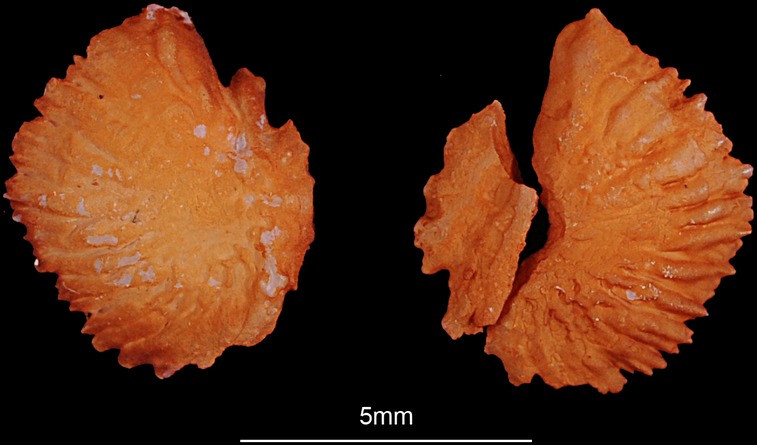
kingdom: Animalia
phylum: Chordata
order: Cypriniformes
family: Cyprinidae
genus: Squalius
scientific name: Squalius cephalus
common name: Chub
